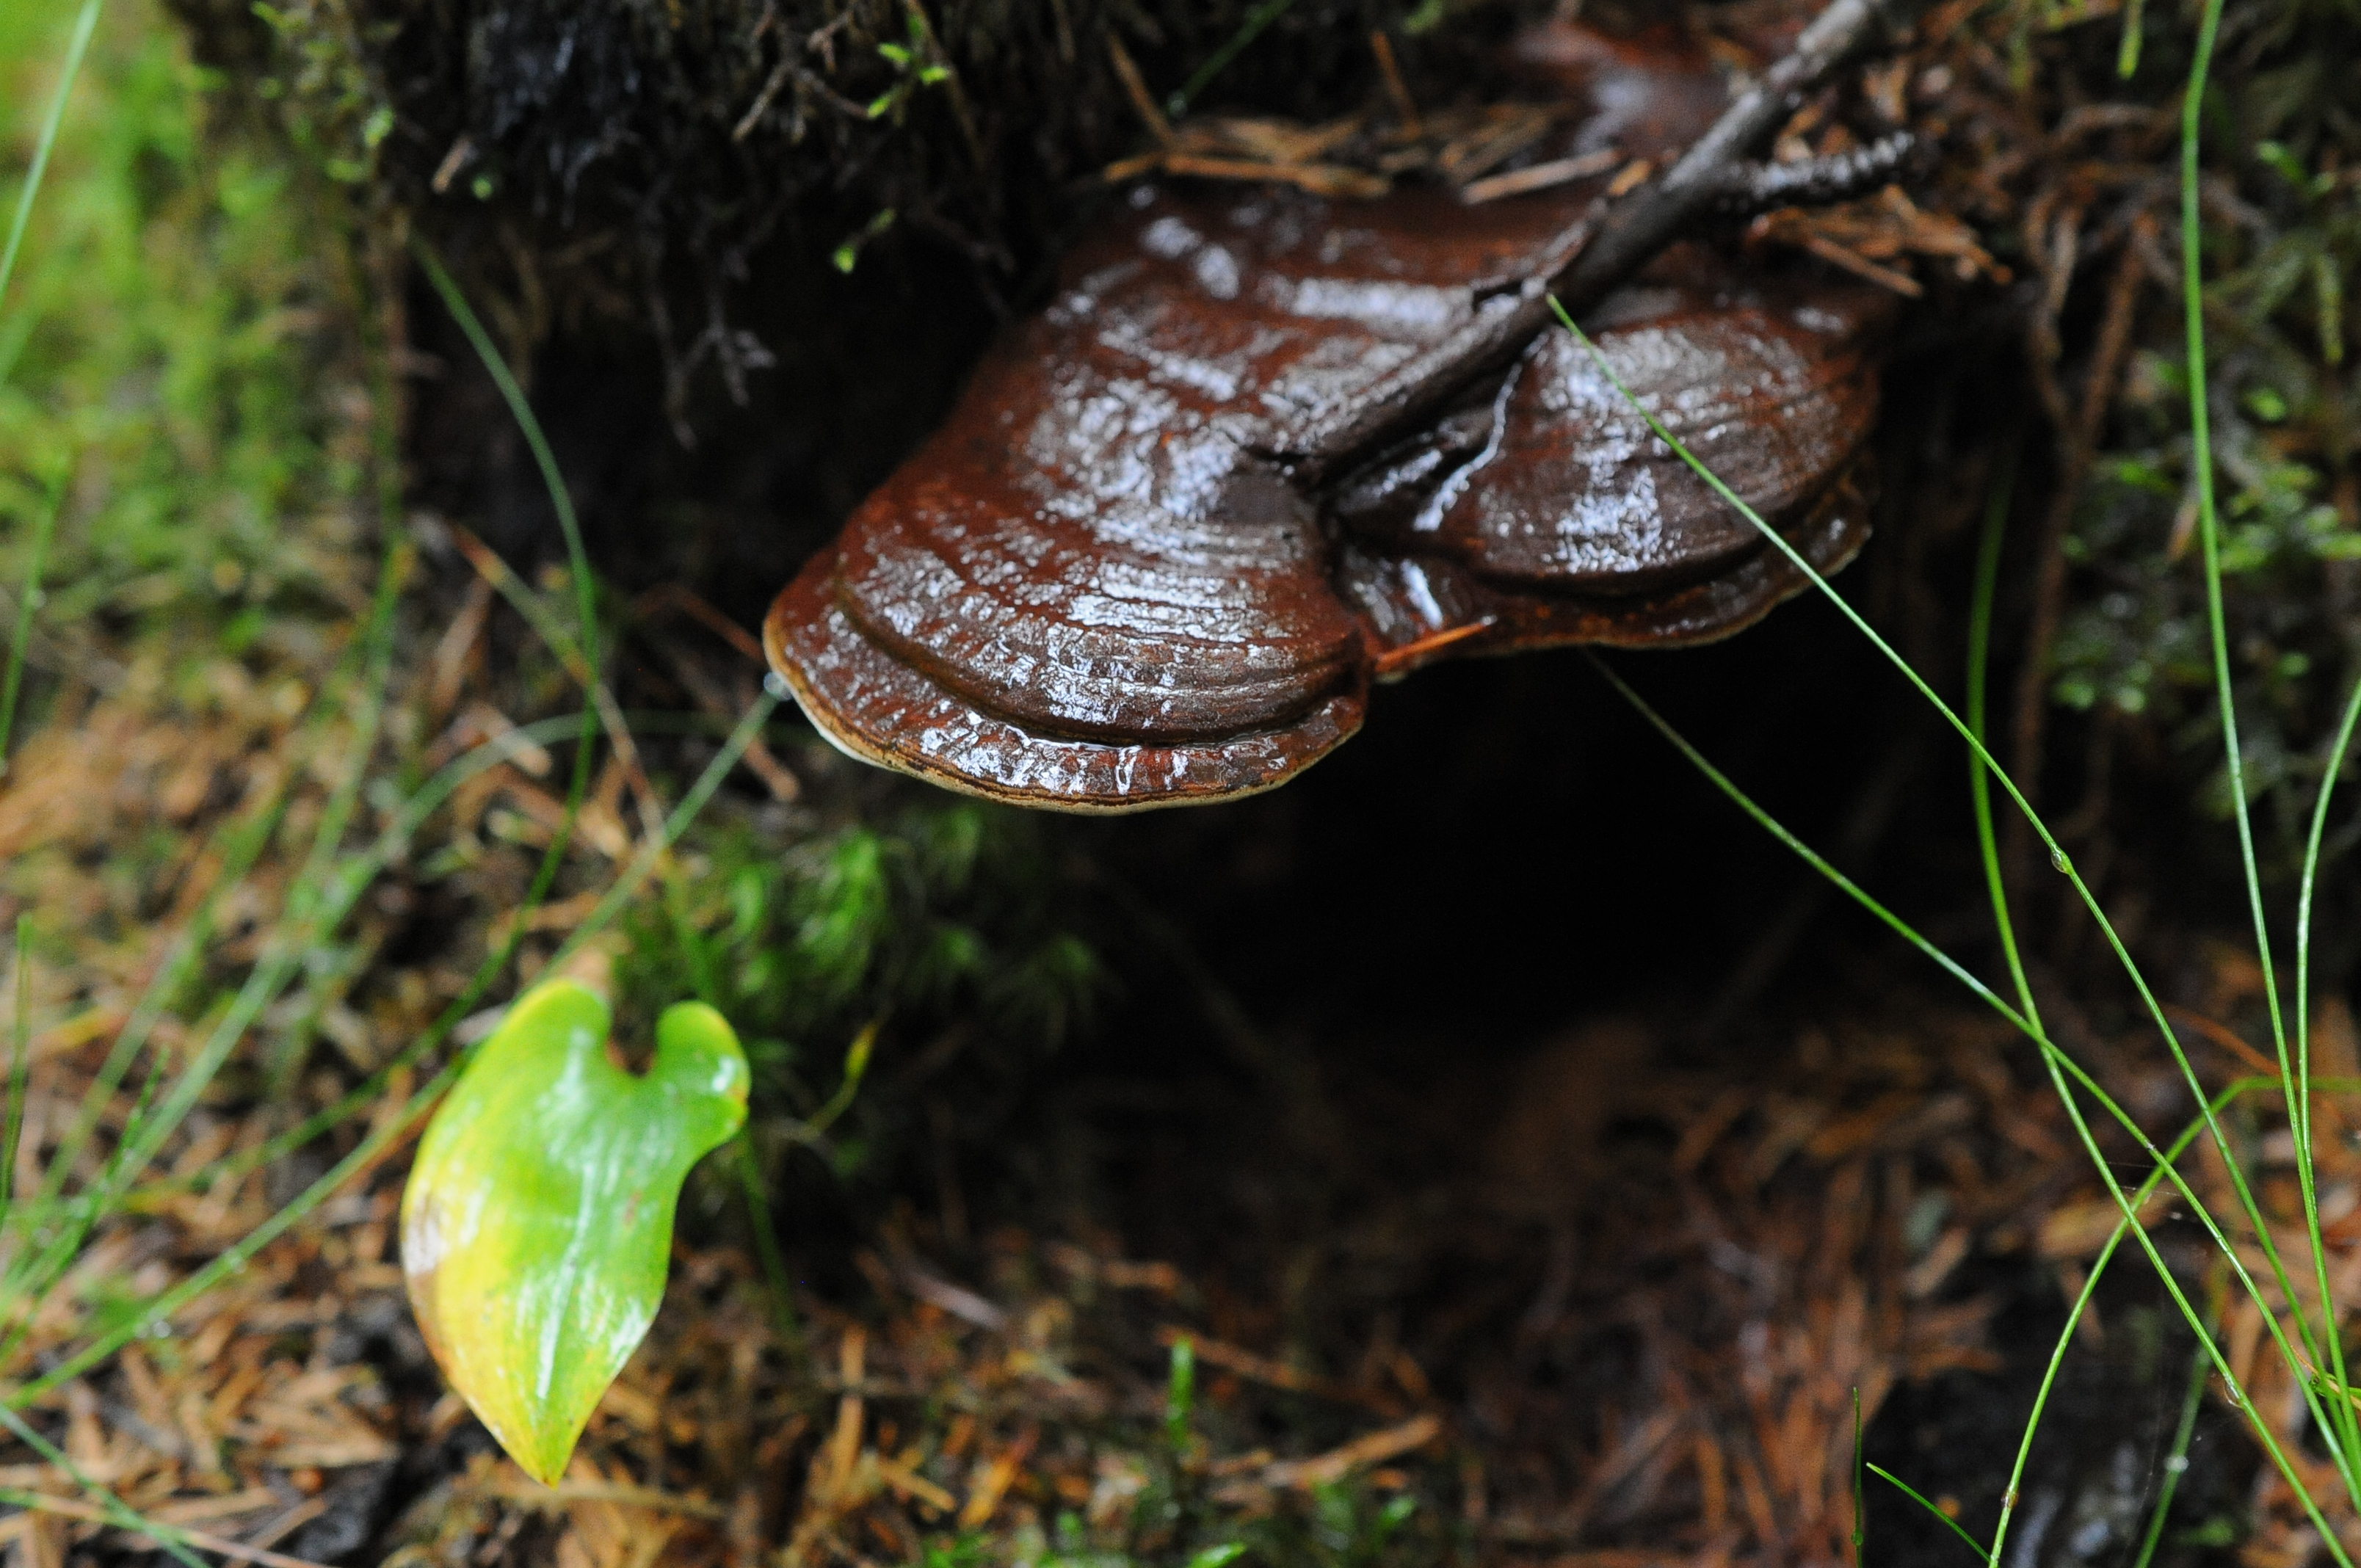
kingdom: Fungi
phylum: Basidiomycota
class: Agaricomycetes
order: Polyporales
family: Polyporaceae
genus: Ganoderma
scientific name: Ganoderma applanatum
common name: Artist's bracket
